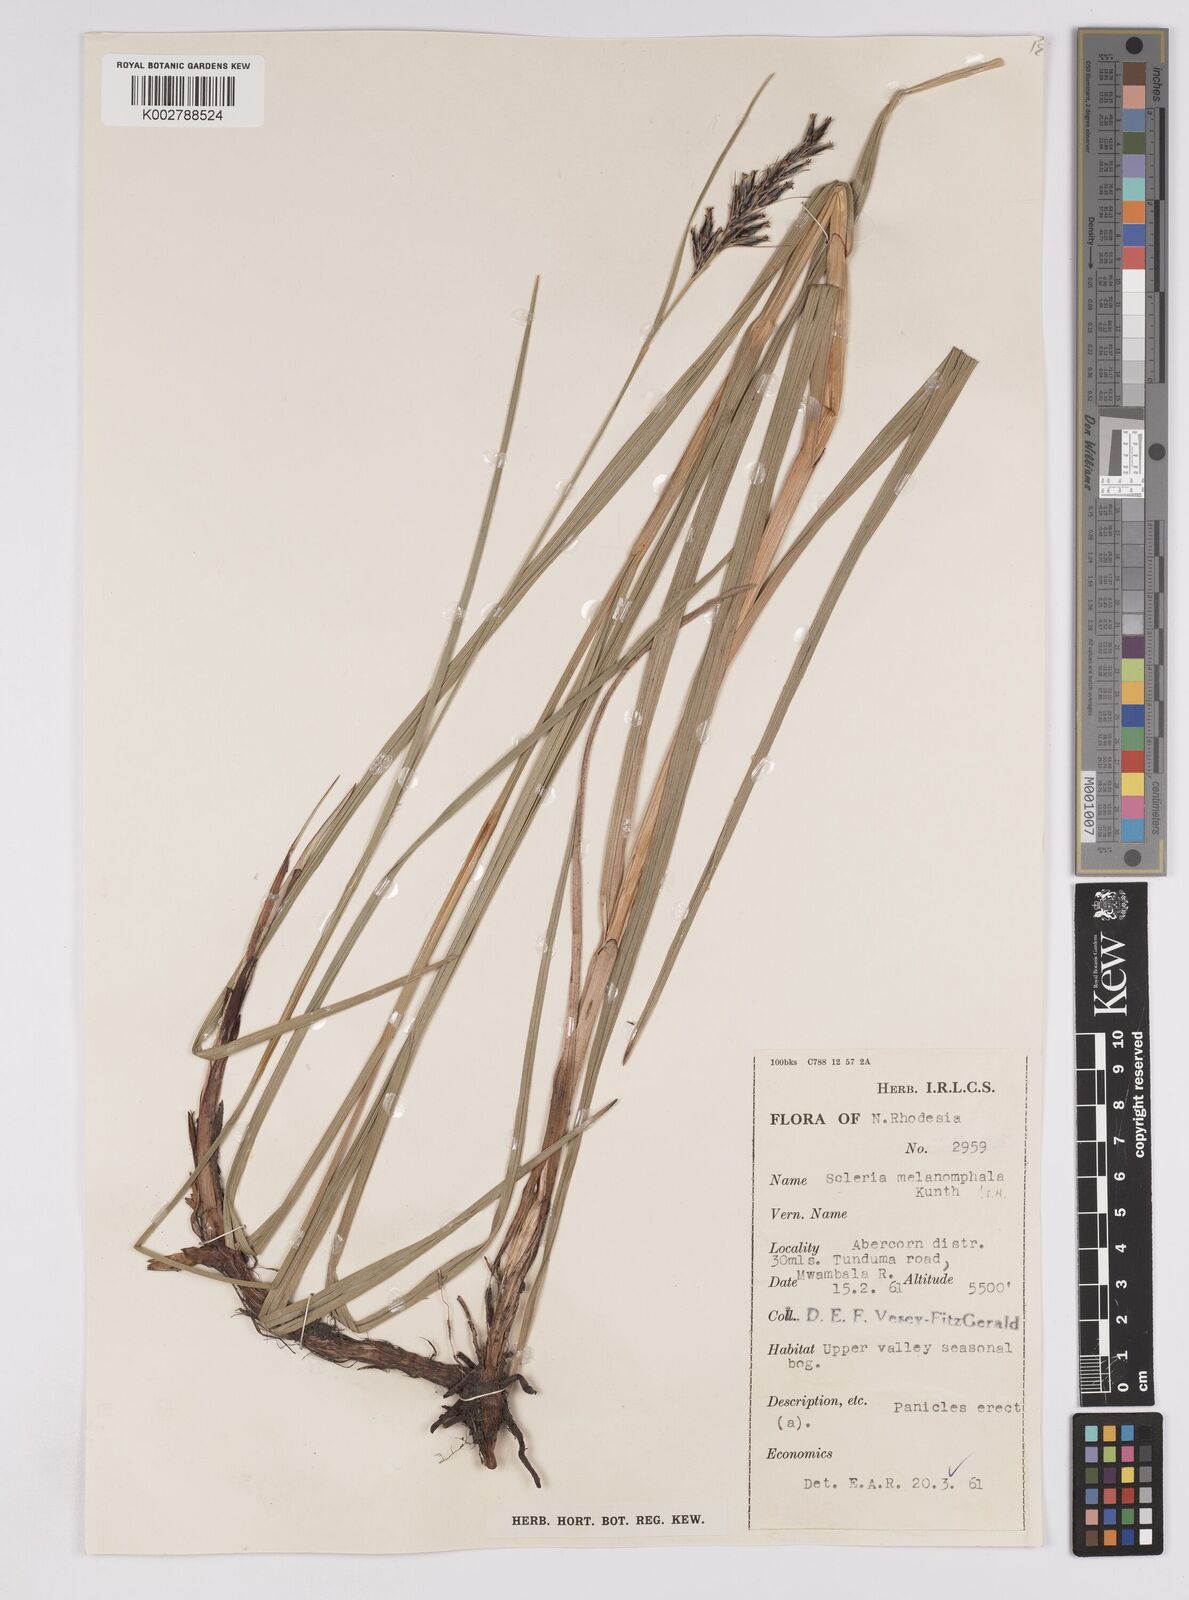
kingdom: Plantae
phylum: Tracheophyta
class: Liliopsida
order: Poales
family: Cyperaceae
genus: Scleria
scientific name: Scleria melanomphala
